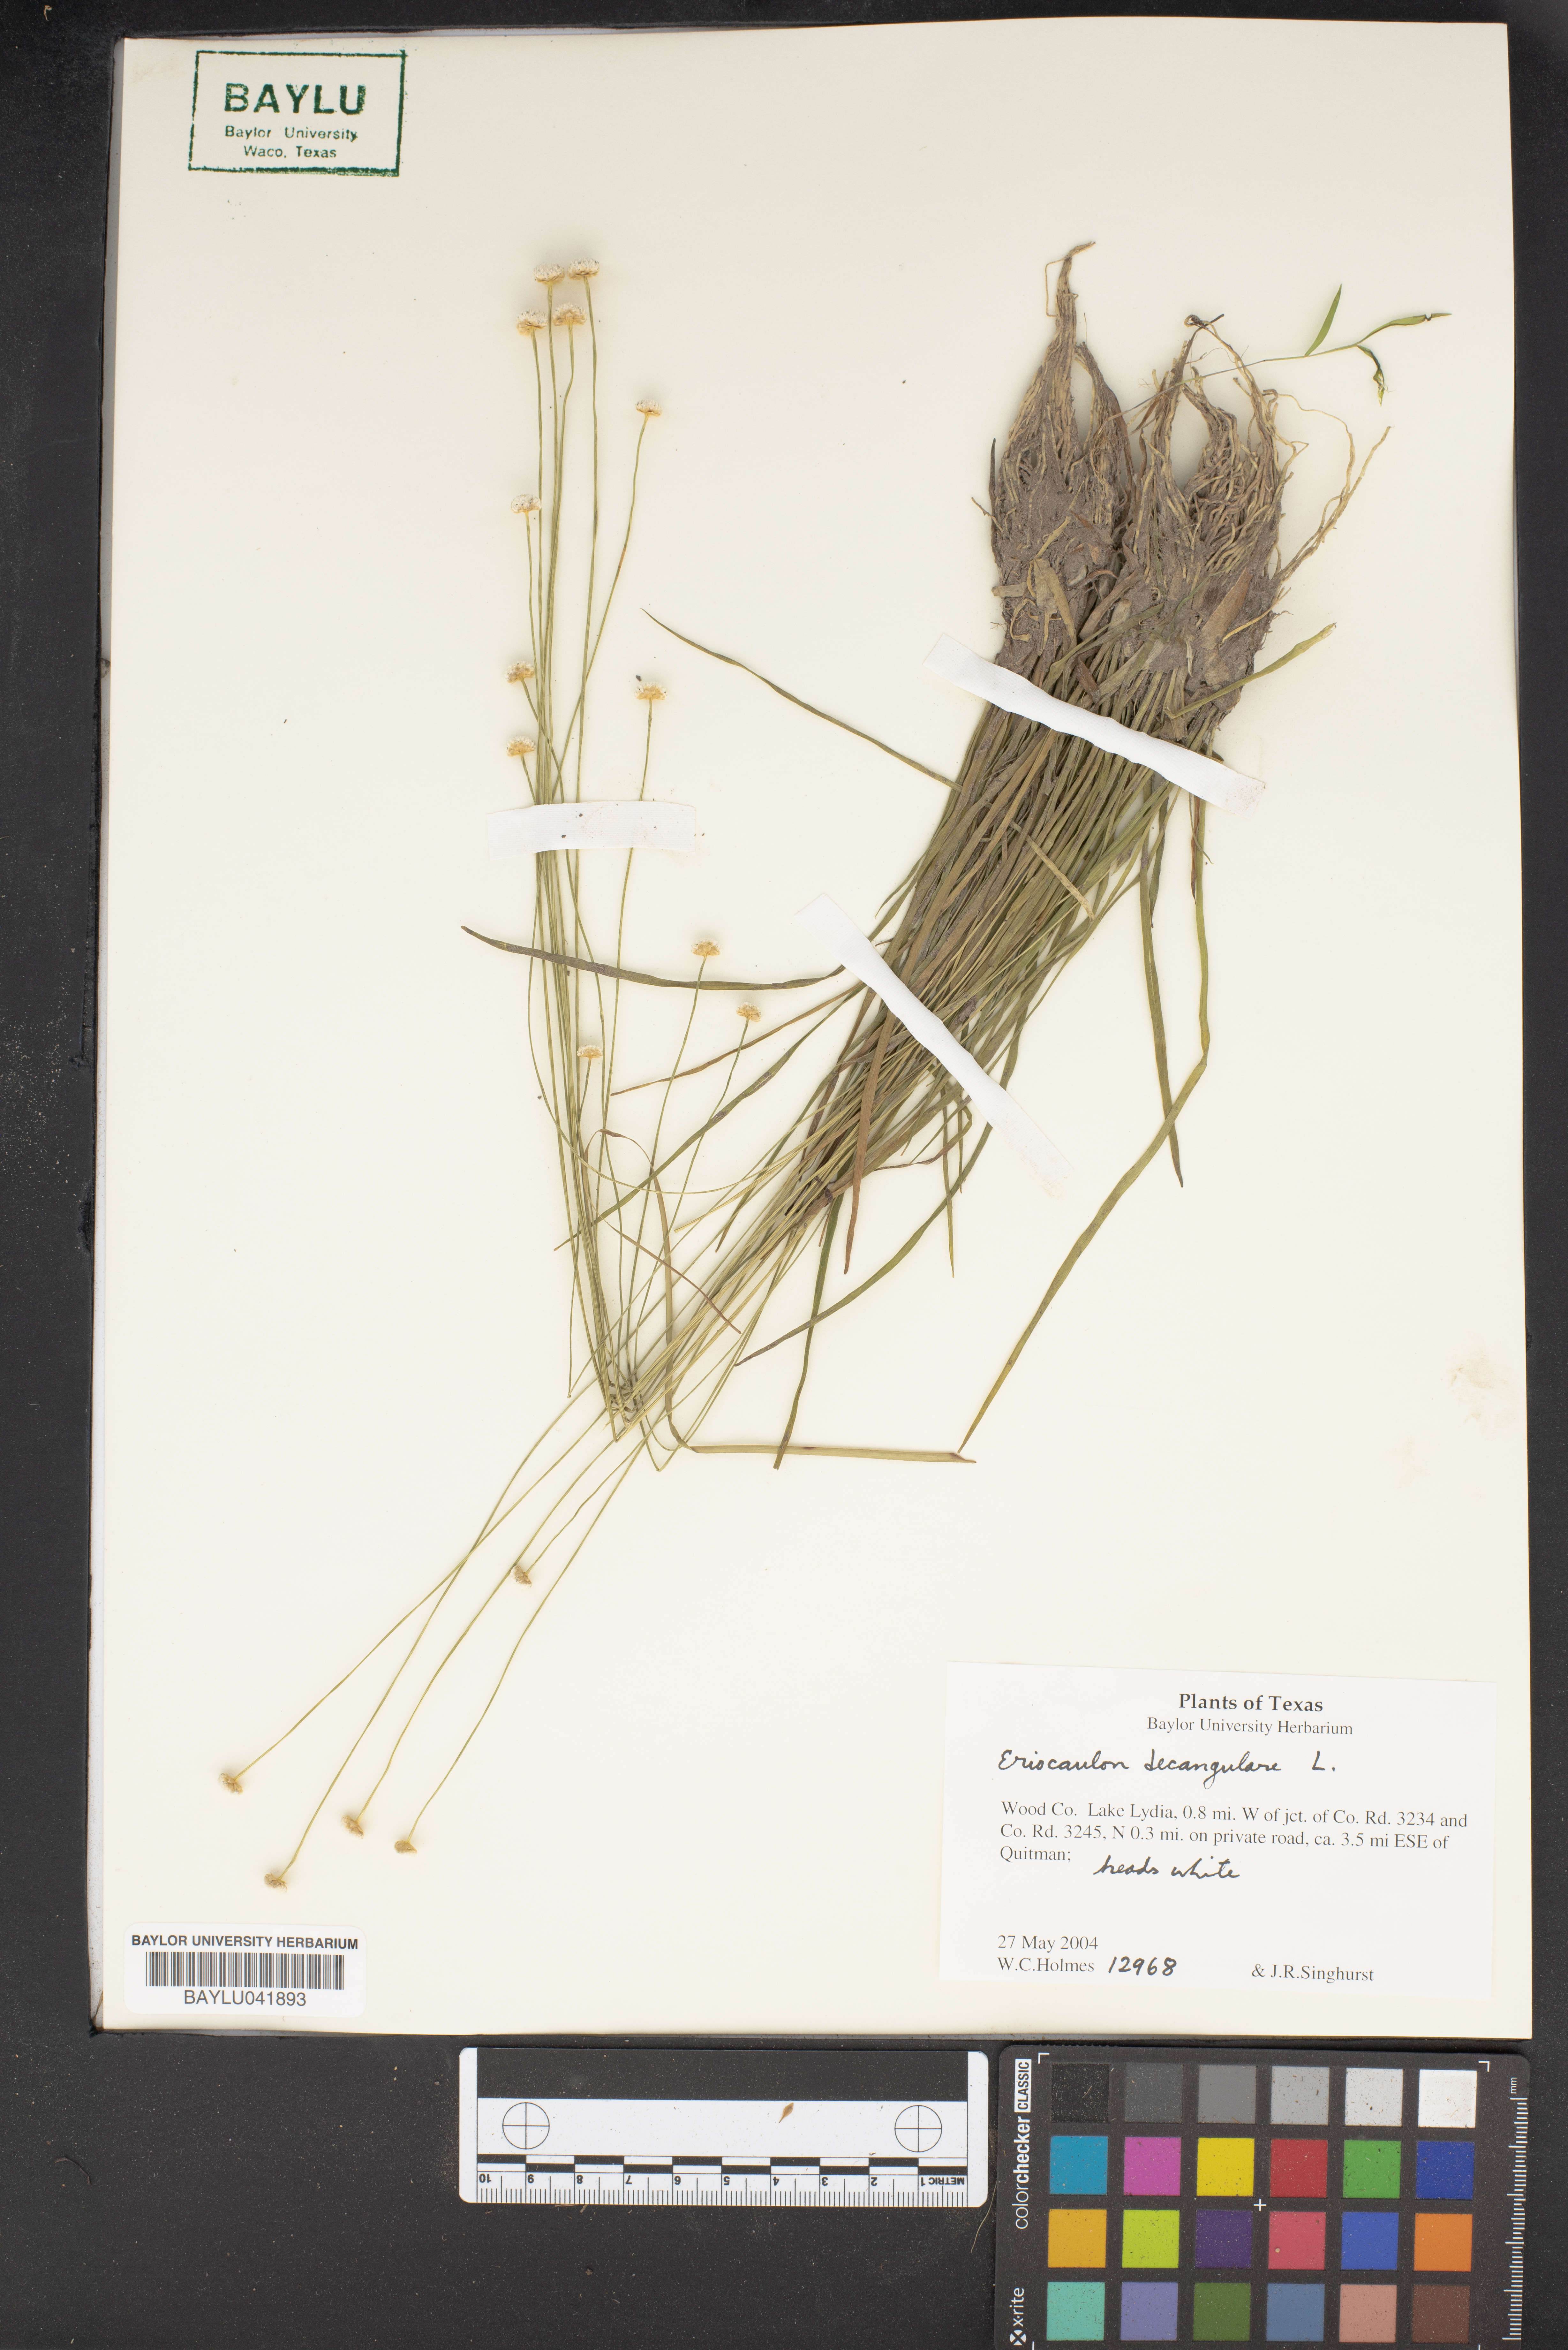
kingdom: Plantae
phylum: Tracheophyta
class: Liliopsida
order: Poales
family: Eriocaulaceae
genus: Eriocaulon
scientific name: Eriocaulon decangulare
